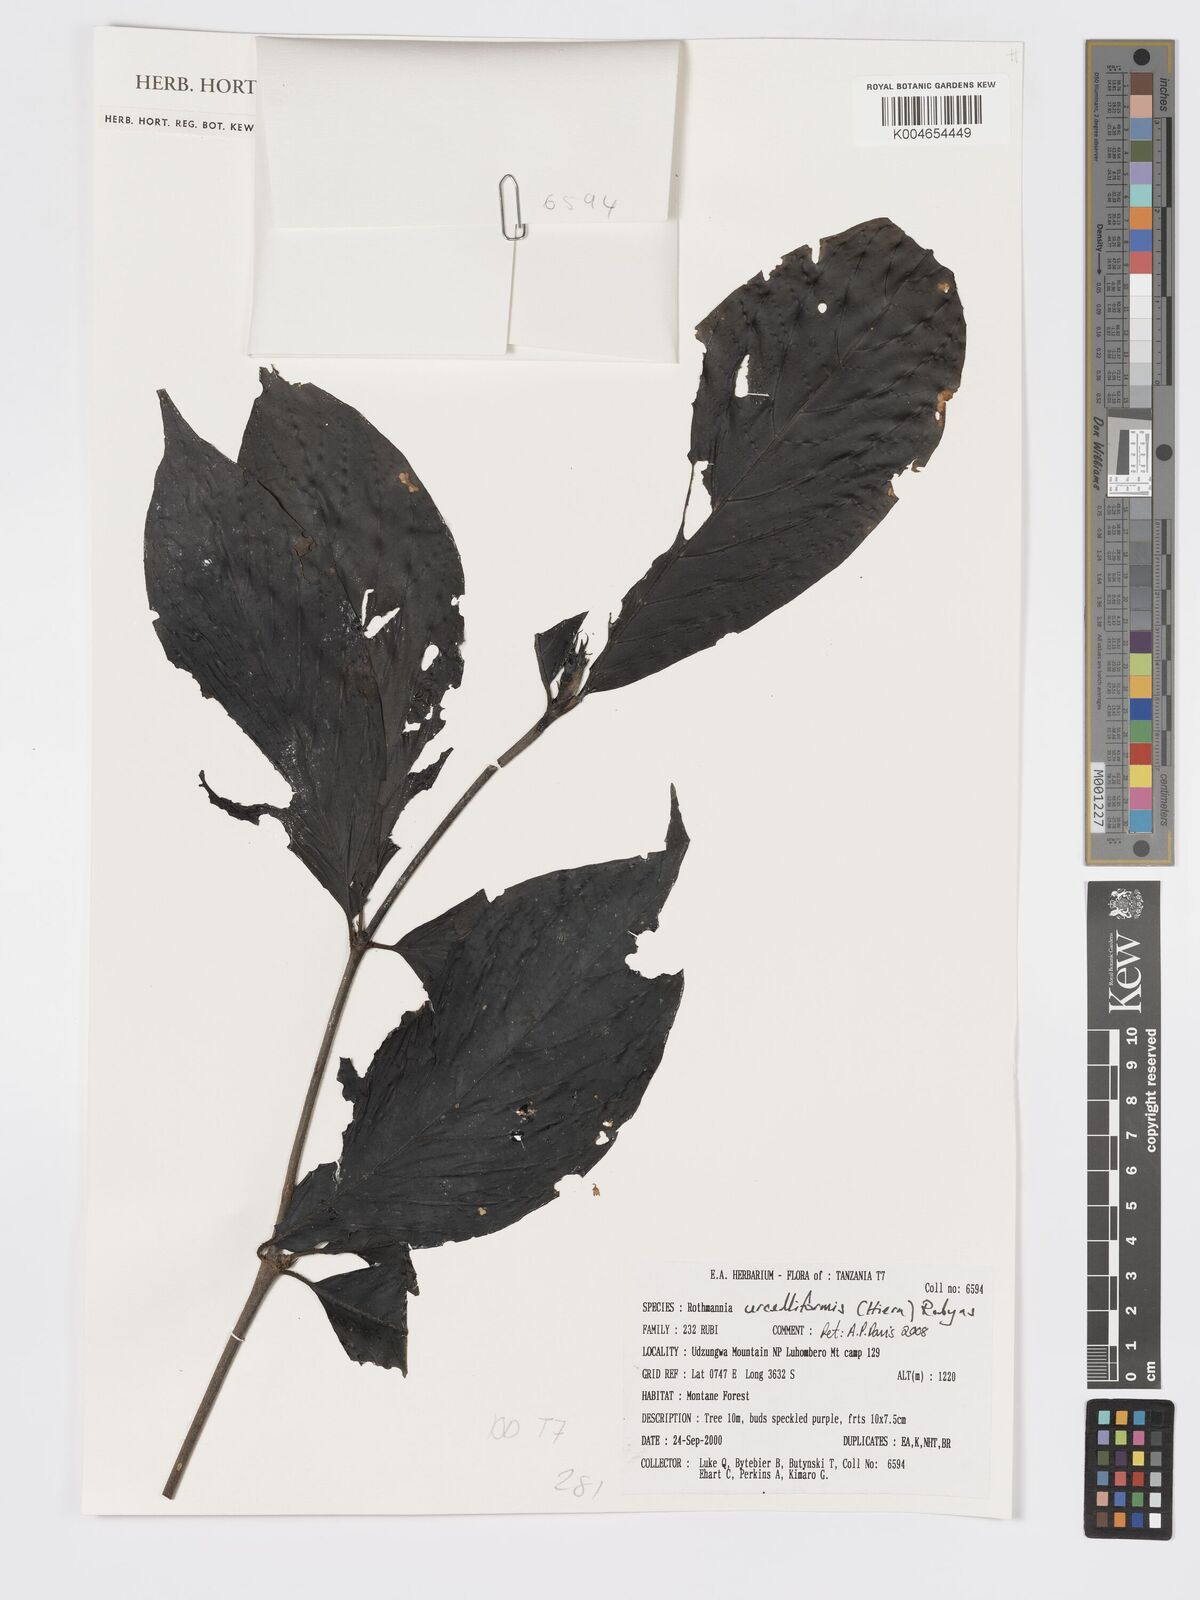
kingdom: Plantae
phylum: Tracheophyta
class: Magnoliopsida
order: Gentianales
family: Rubiaceae
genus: Rothmannia
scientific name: Rothmannia urcelliformis
